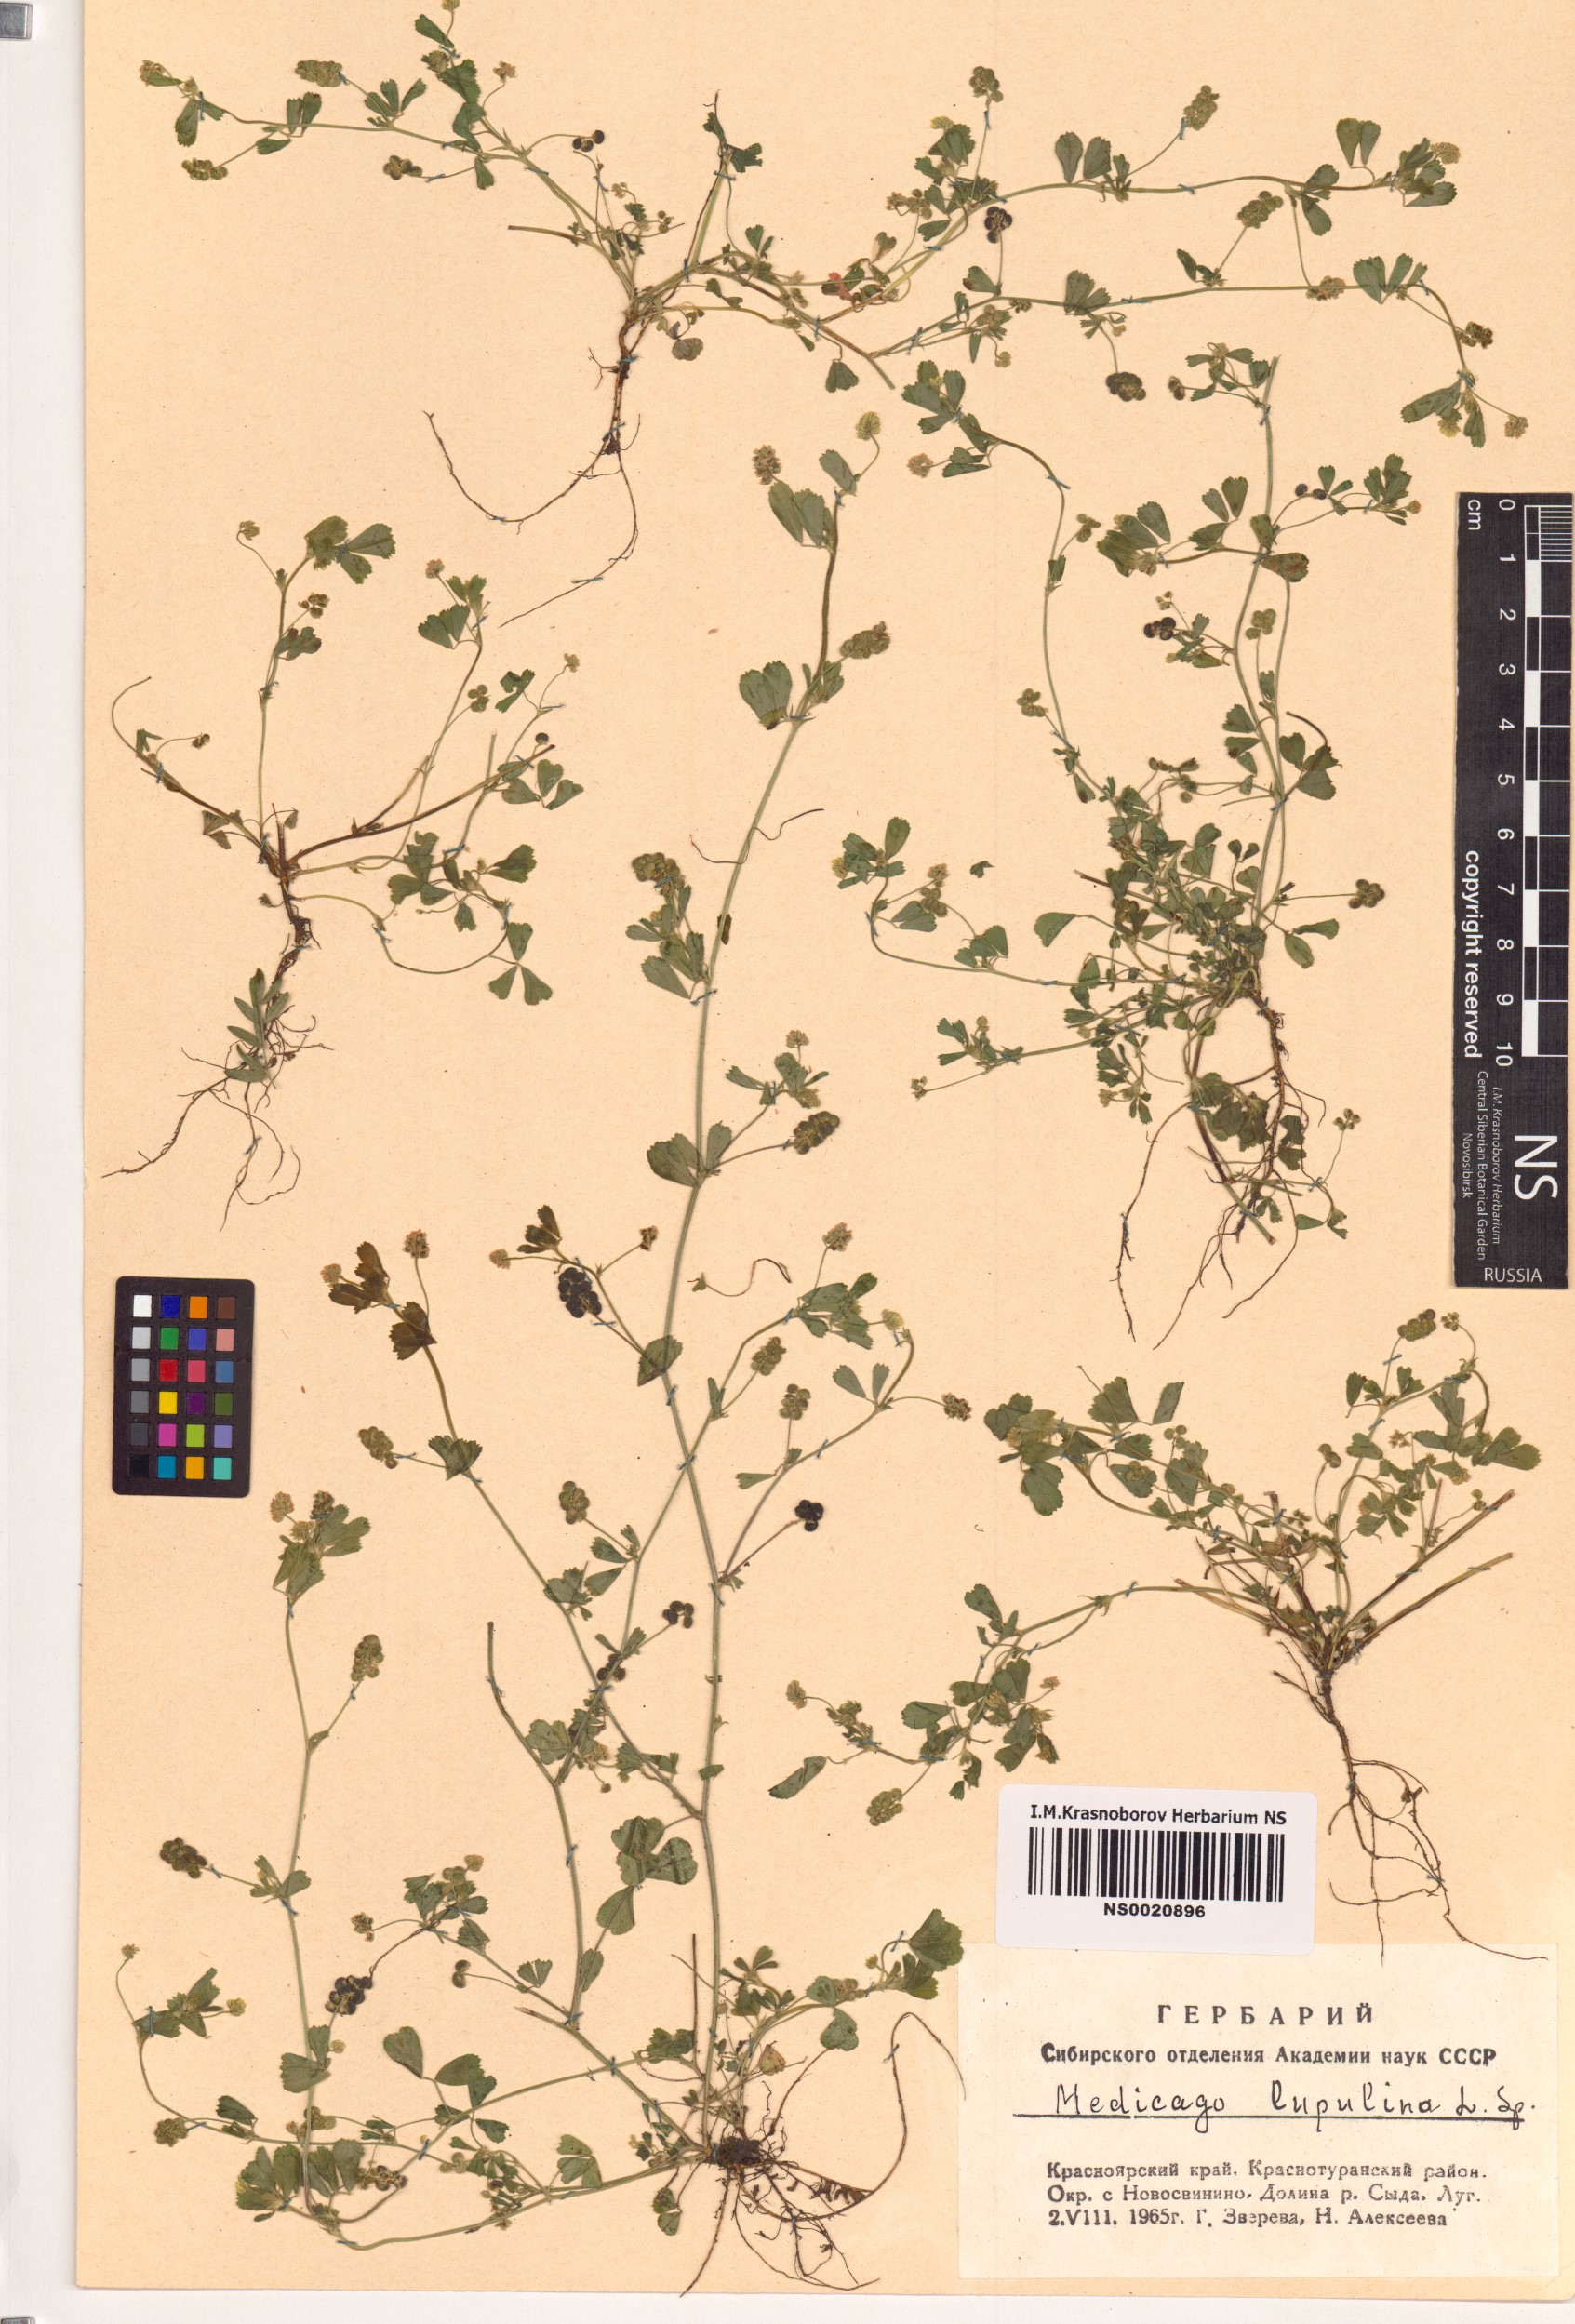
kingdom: Plantae
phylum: Tracheophyta
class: Magnoliopsida
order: Fabales
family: Fabaceae
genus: Medicago
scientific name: Medicago lupulina
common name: Black medick
